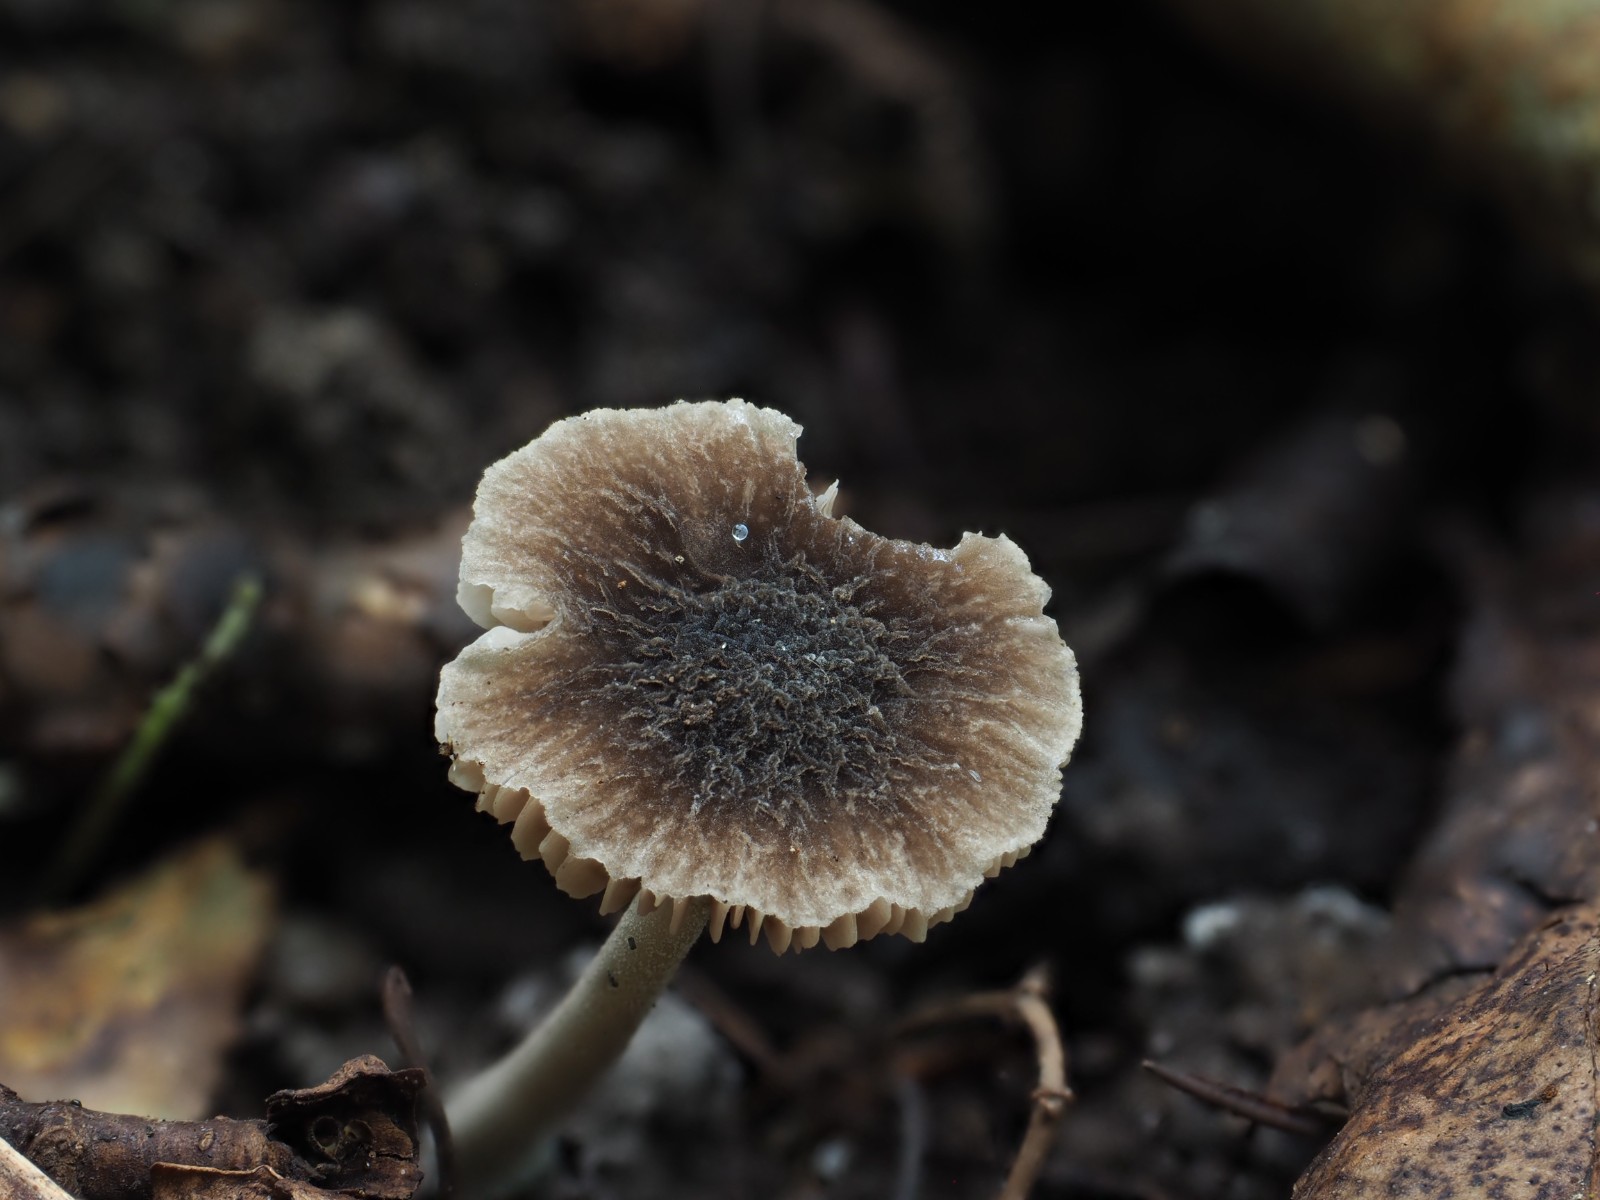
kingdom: Fungi
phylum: Basidiomycota
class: Agaricomycetes
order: Agaricales
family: Pluteaceae
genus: Pluteus
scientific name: Pluteus
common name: gråstokket skærmhat
